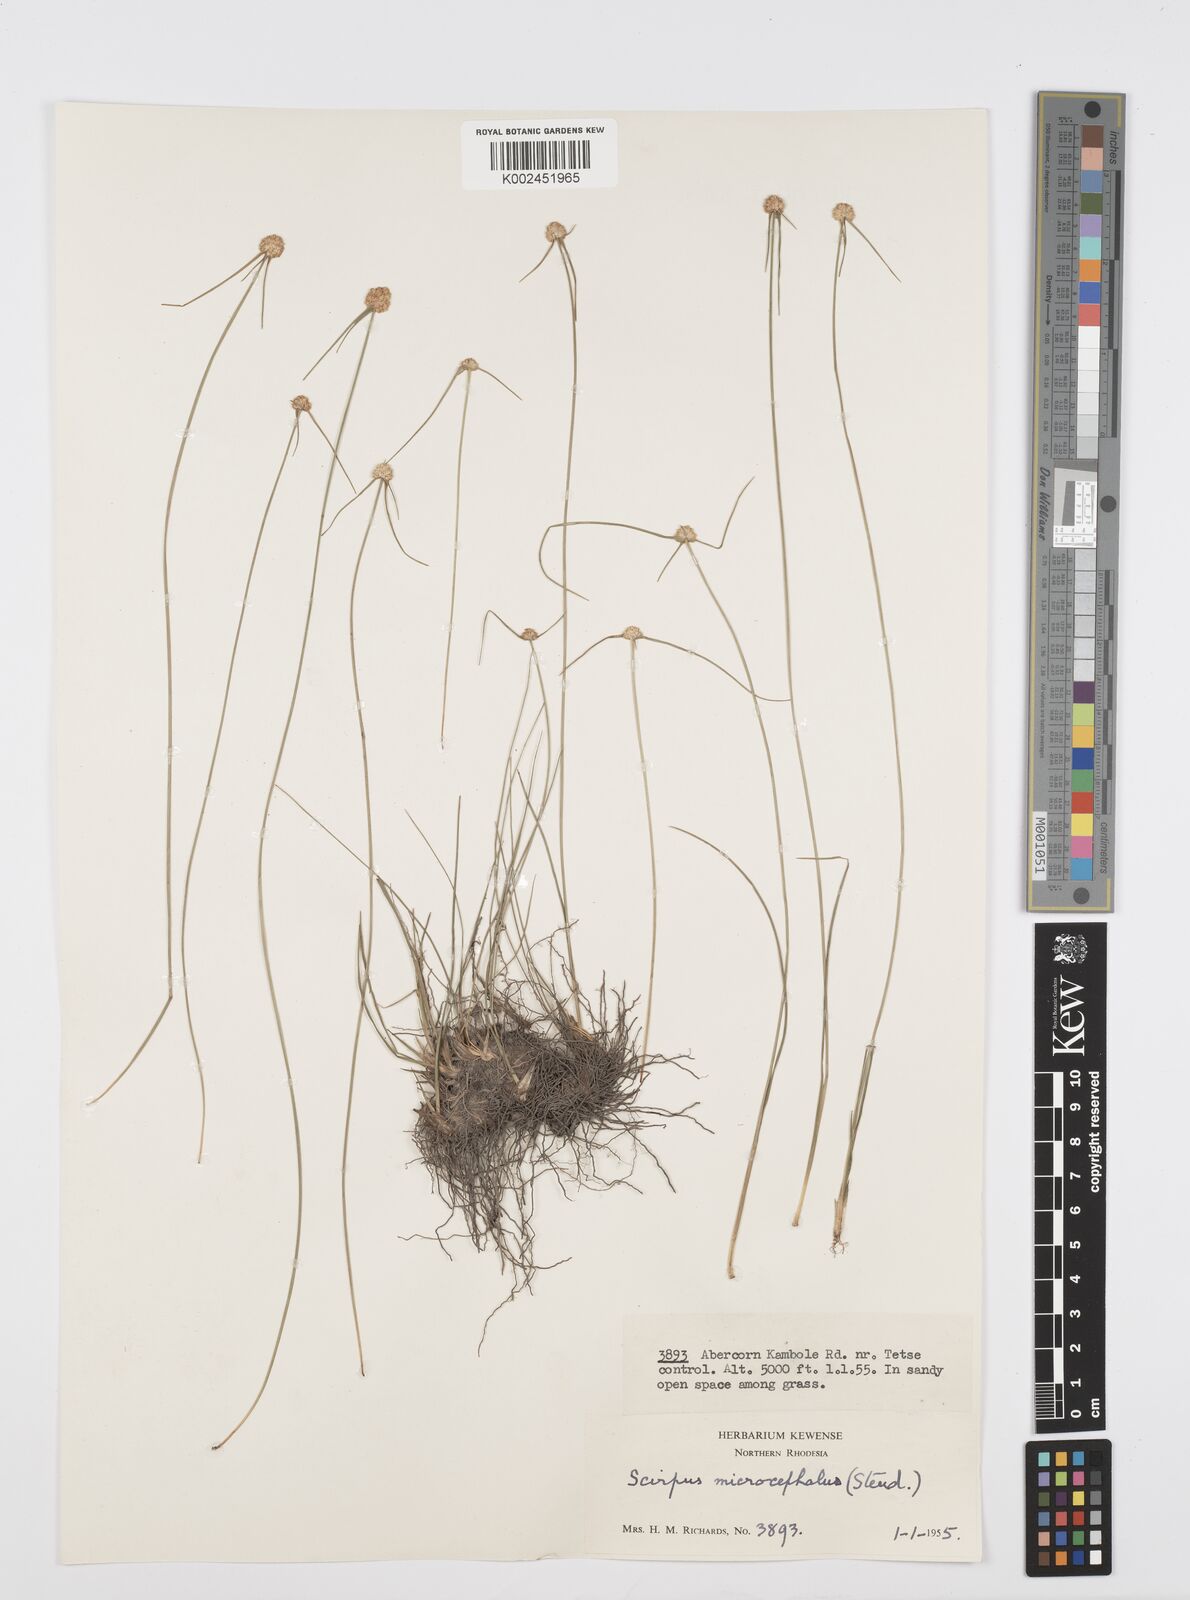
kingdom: Plantae
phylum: Tracheophyta
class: Liliopsida
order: Poales
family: Cyperaceae
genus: Cyperus
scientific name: Cyperus microcephalus
